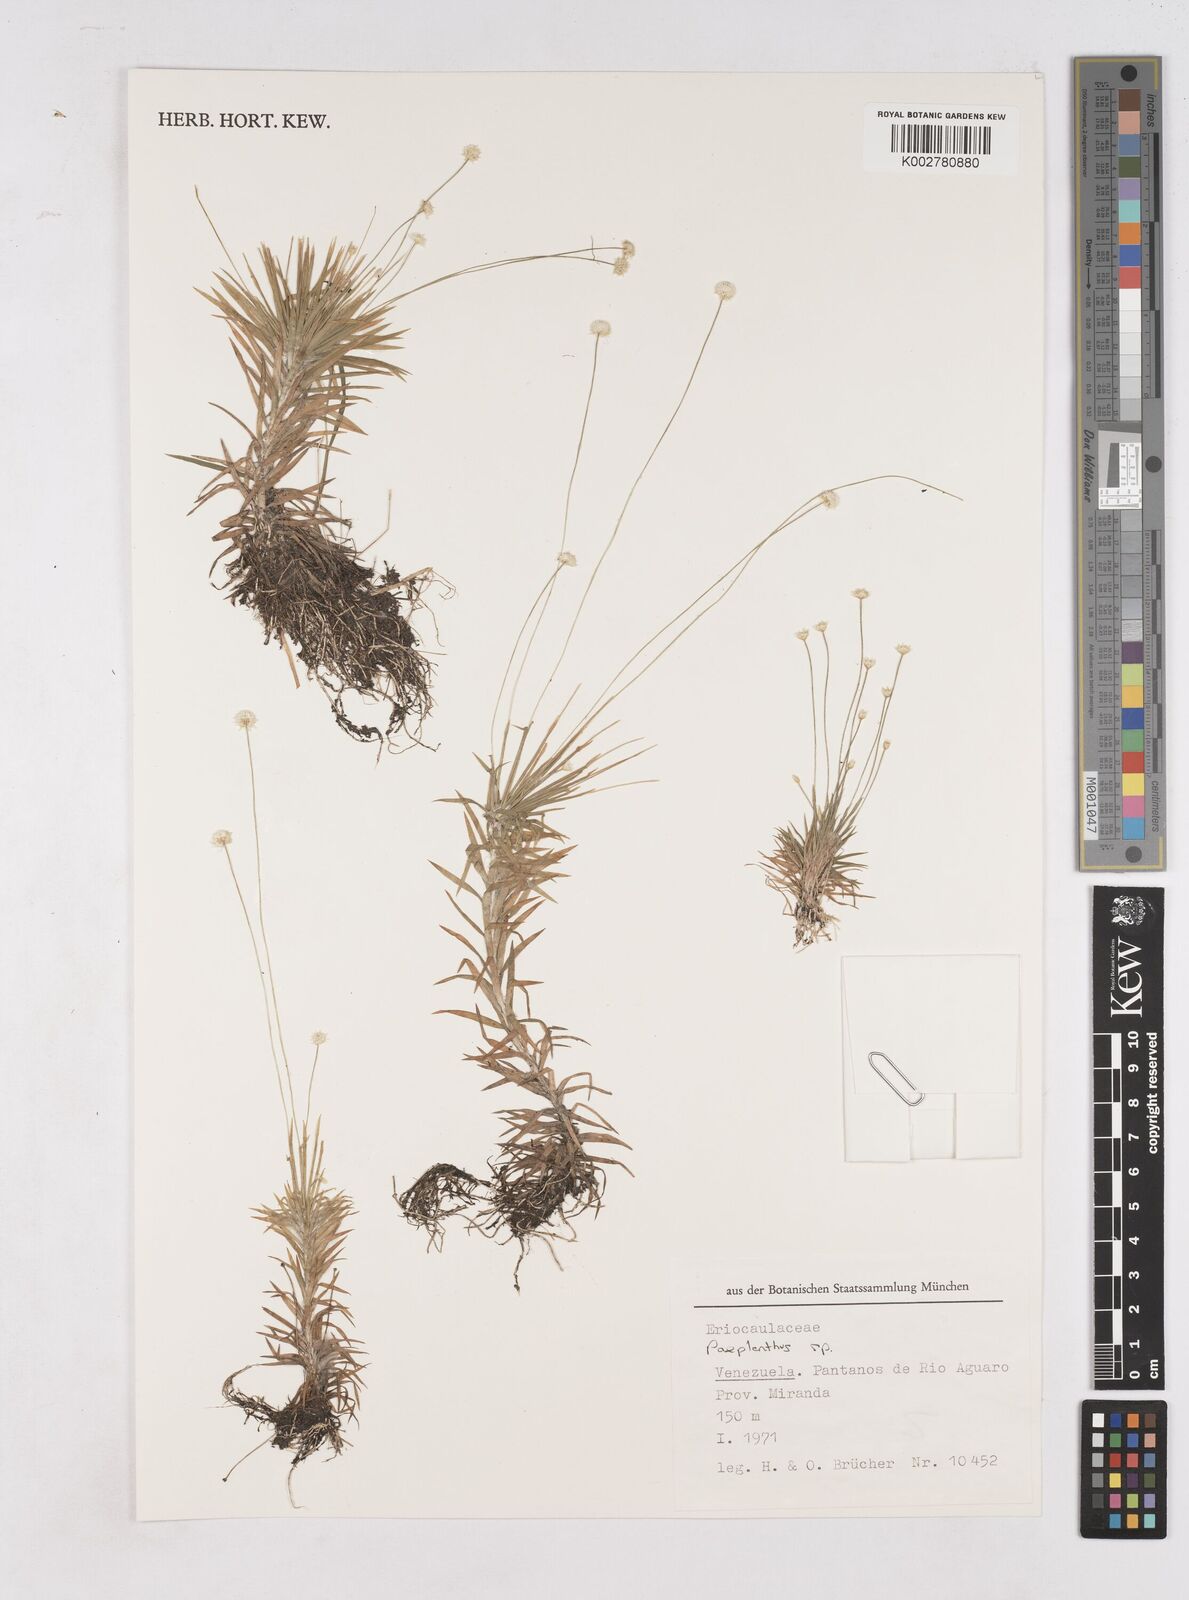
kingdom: Plantae
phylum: Tracheophyta
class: Liliopsida
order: Poales
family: Eriocaulaceae
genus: Paepalanthus
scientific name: Paepalanthus
